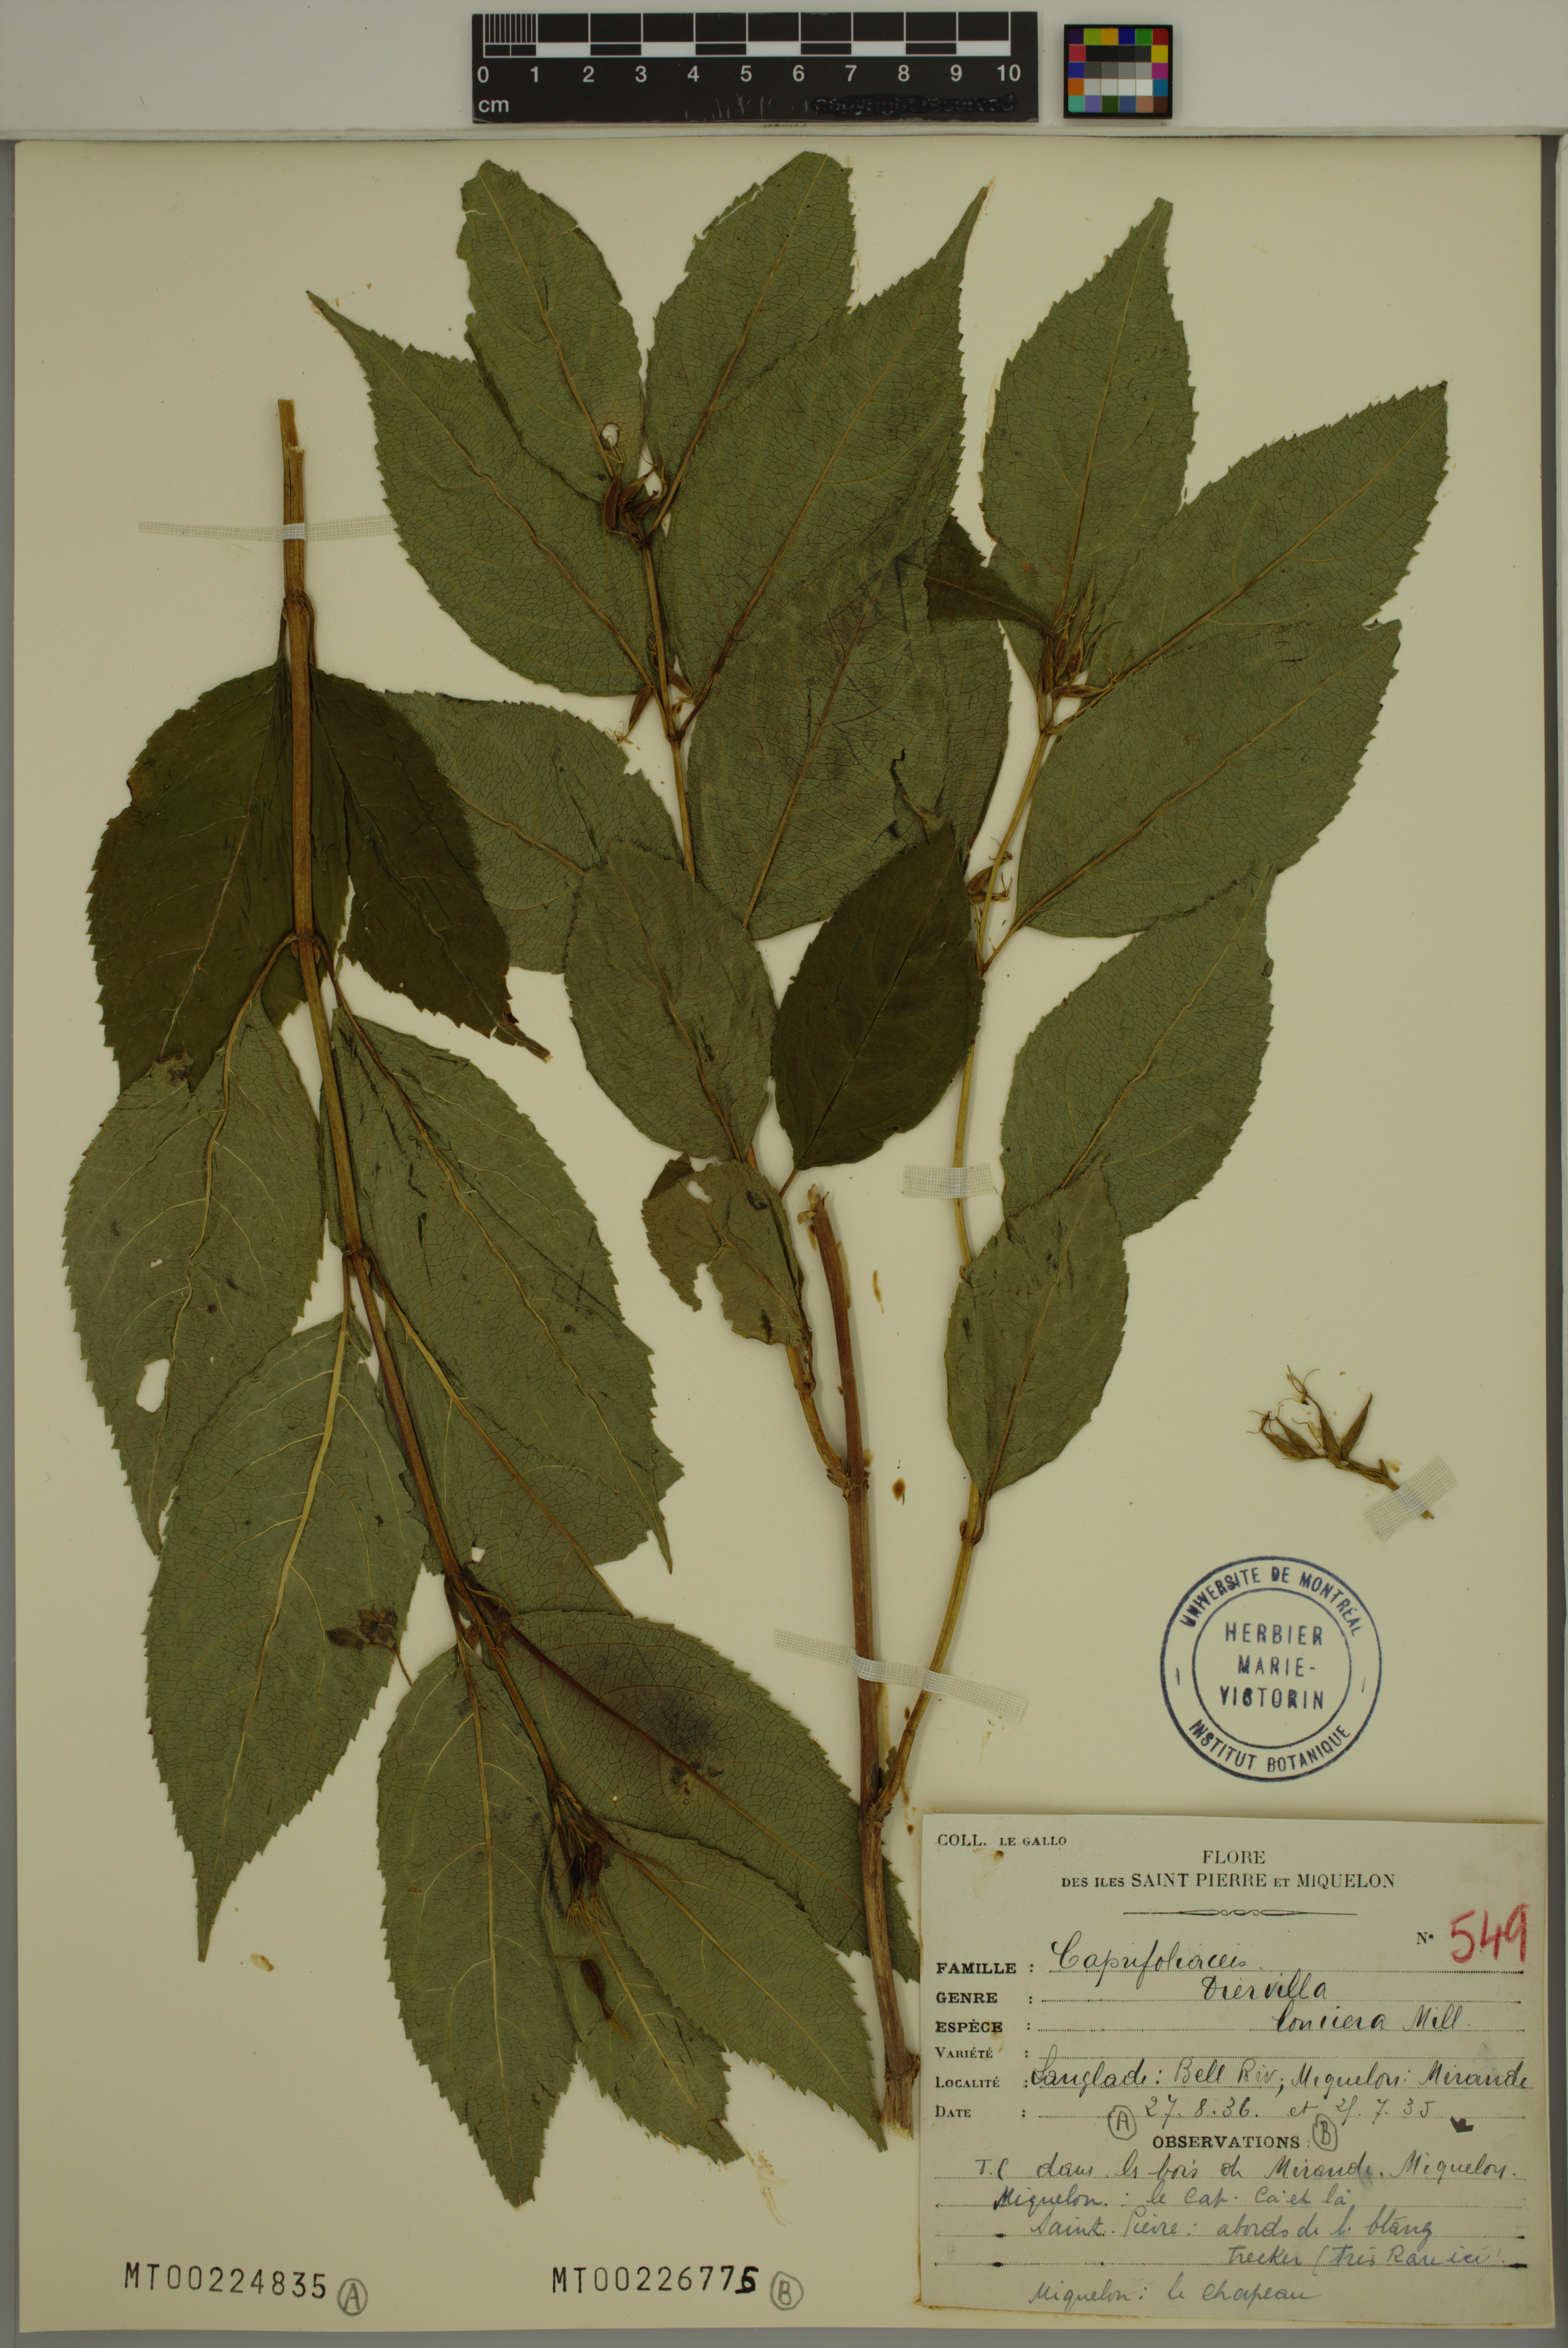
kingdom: Plantae
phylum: Tracheophyta
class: Magnoliopsida
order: Dipsacales
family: Caprifoliaceae
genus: Diervilla
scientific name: Diervilla lonicera
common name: Bush-honeysuckle
